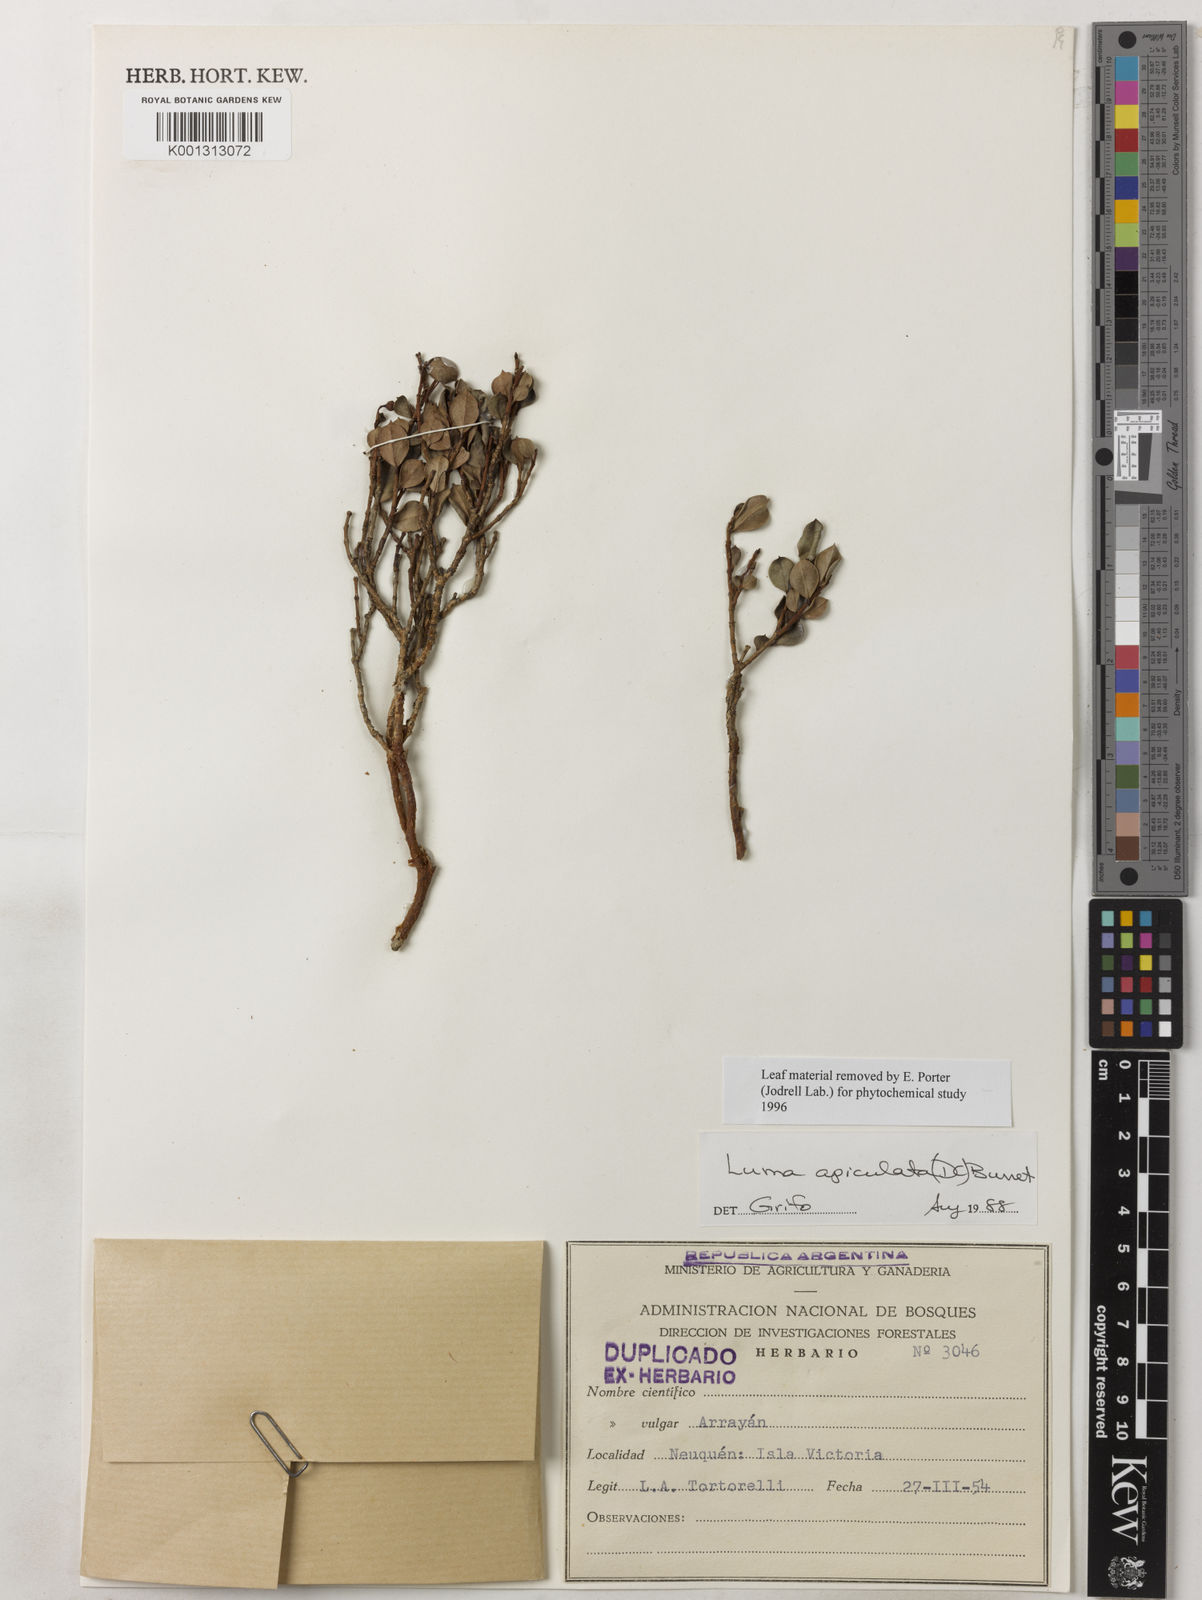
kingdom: Plantae
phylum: Tracheophyta
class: Magnoliopsida
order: Myrtales
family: Myrtaceae
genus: Luma
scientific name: Luma apiculata
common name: Chilean myrtle
